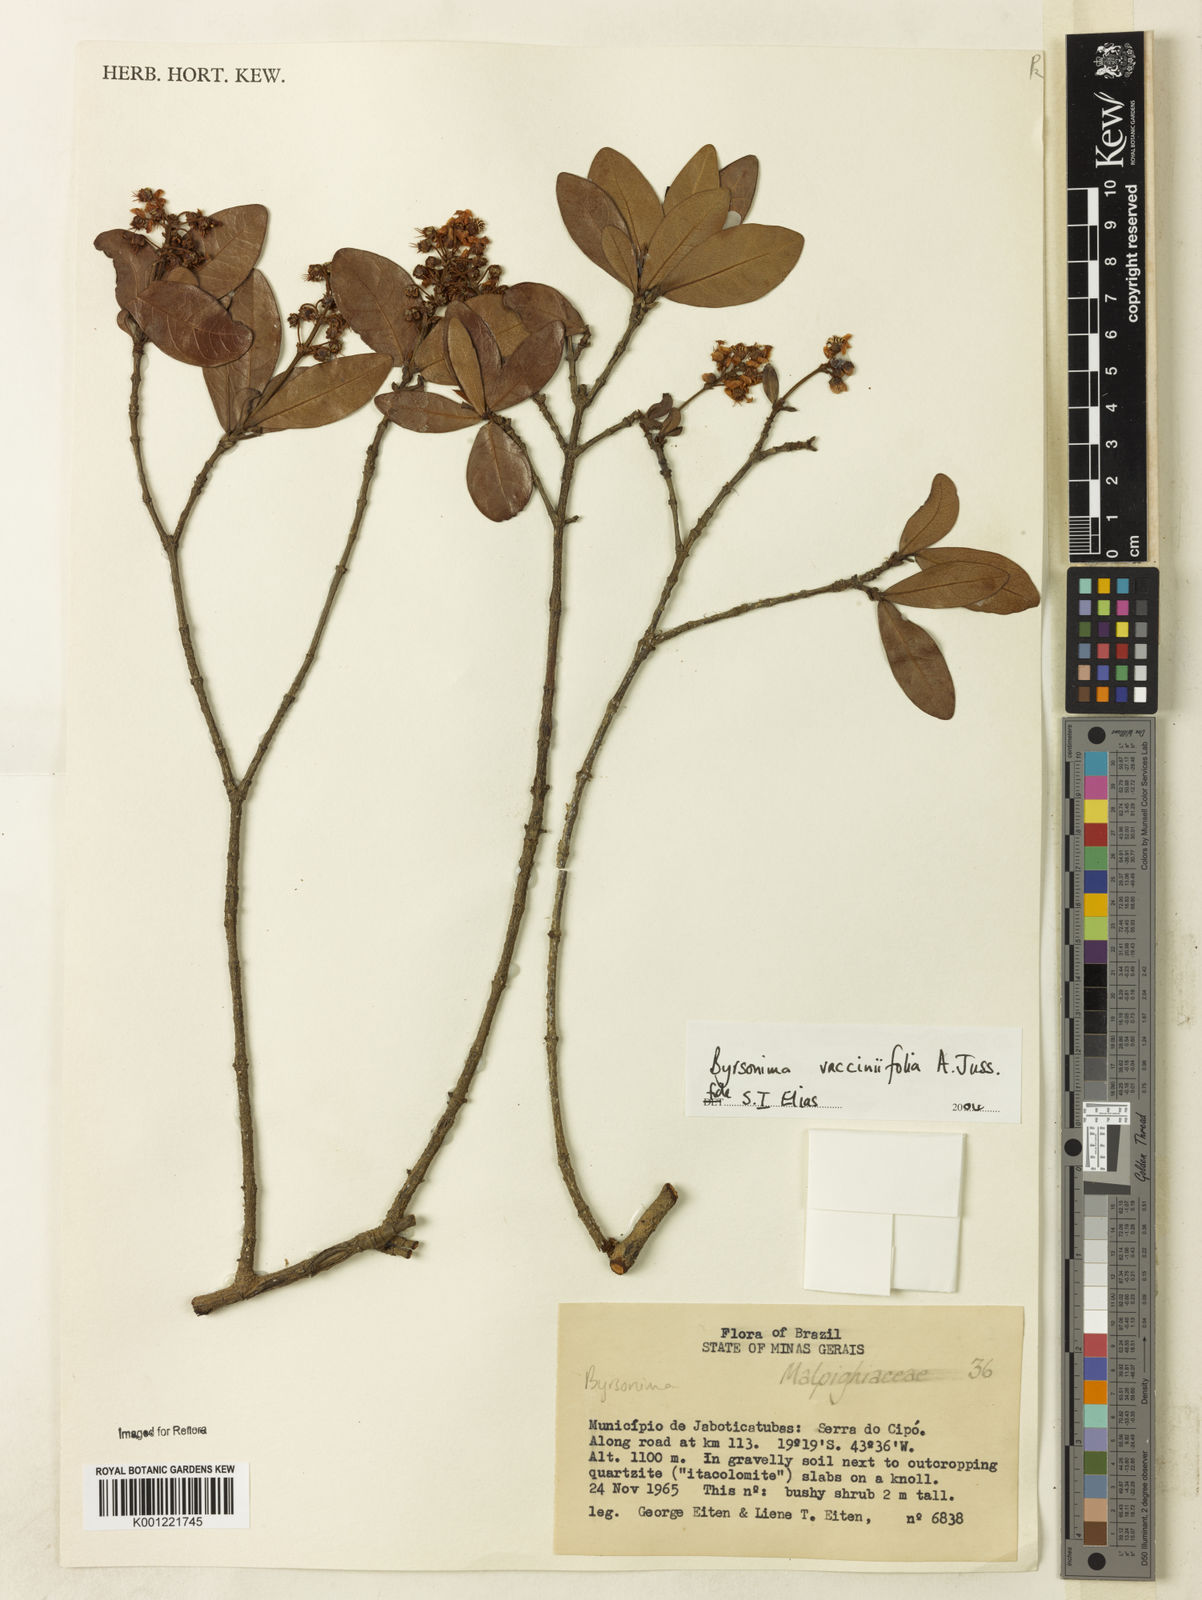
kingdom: Plantae
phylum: Tracheophyta
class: Magnoliopsida
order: Malpighiales
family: Malpighiaceae
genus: Byrsonima
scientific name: Byrsonima vacciniifolia
